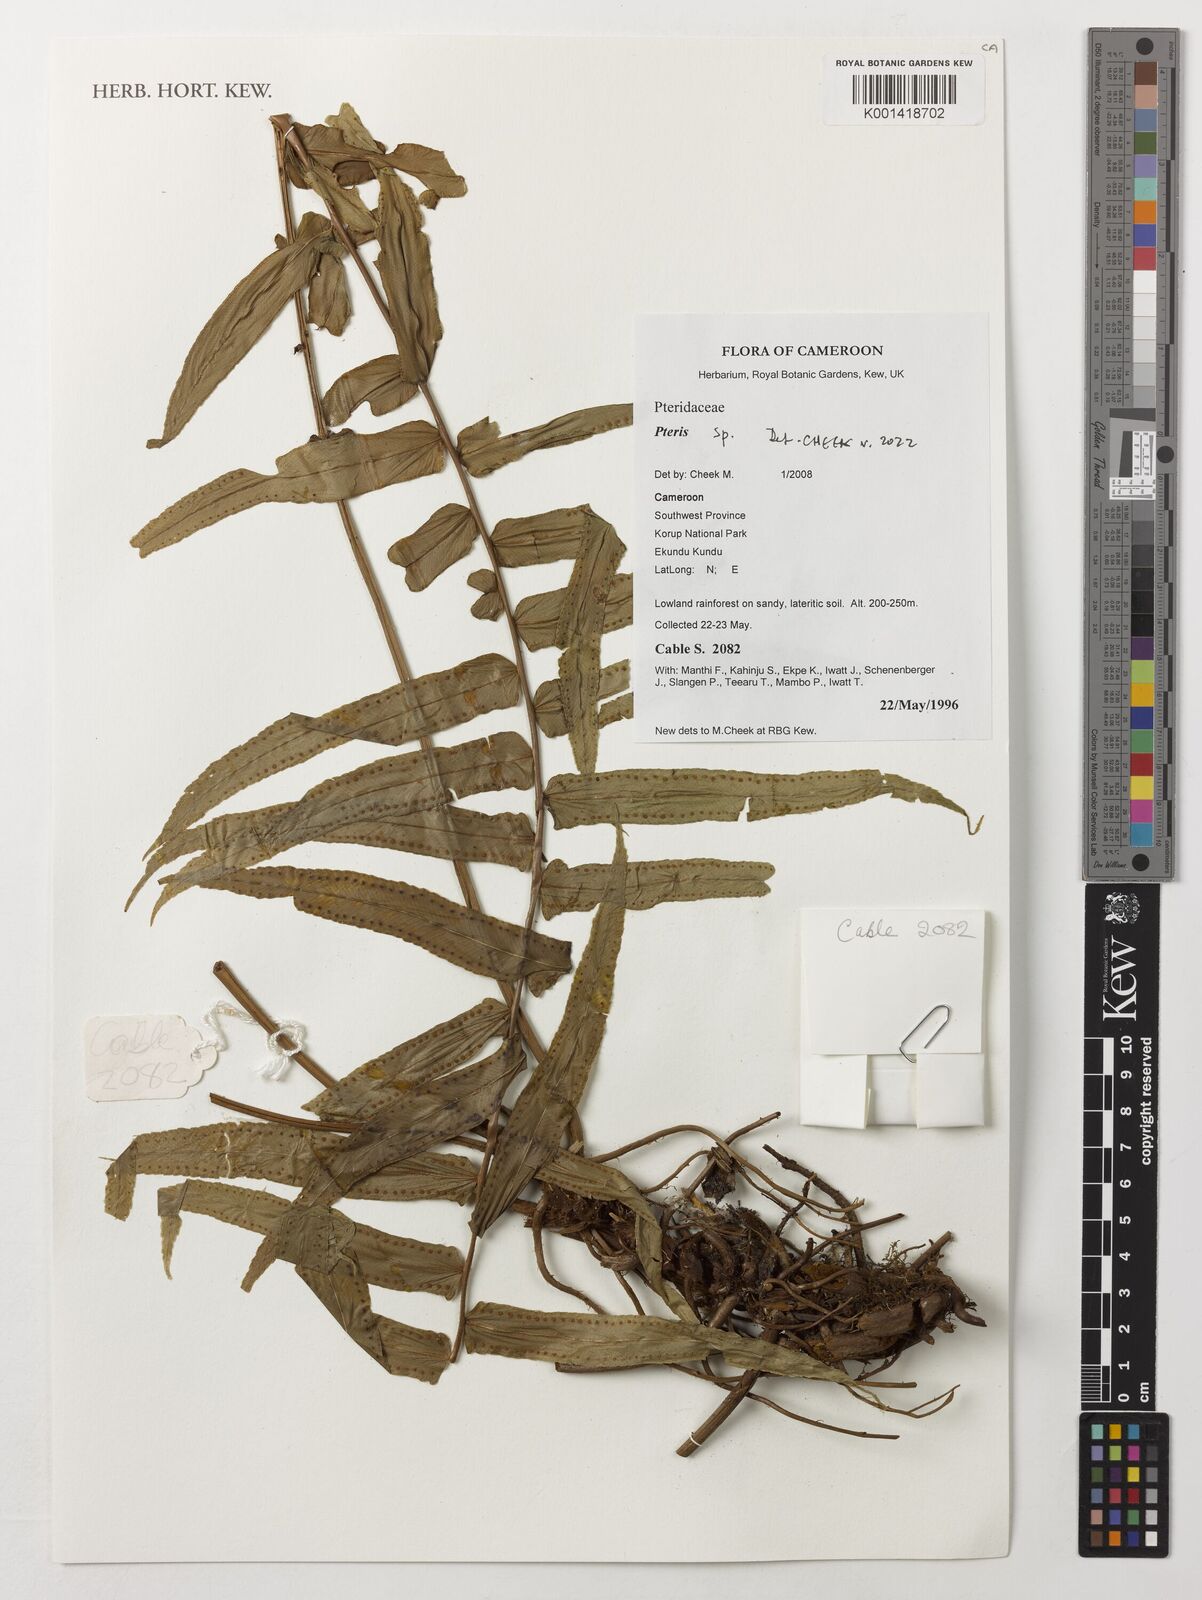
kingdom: Plantae
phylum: Tracheophyta
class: Polypodiopsida
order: Polypodiales
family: Pteridaceae
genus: Pteris
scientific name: Pteris
